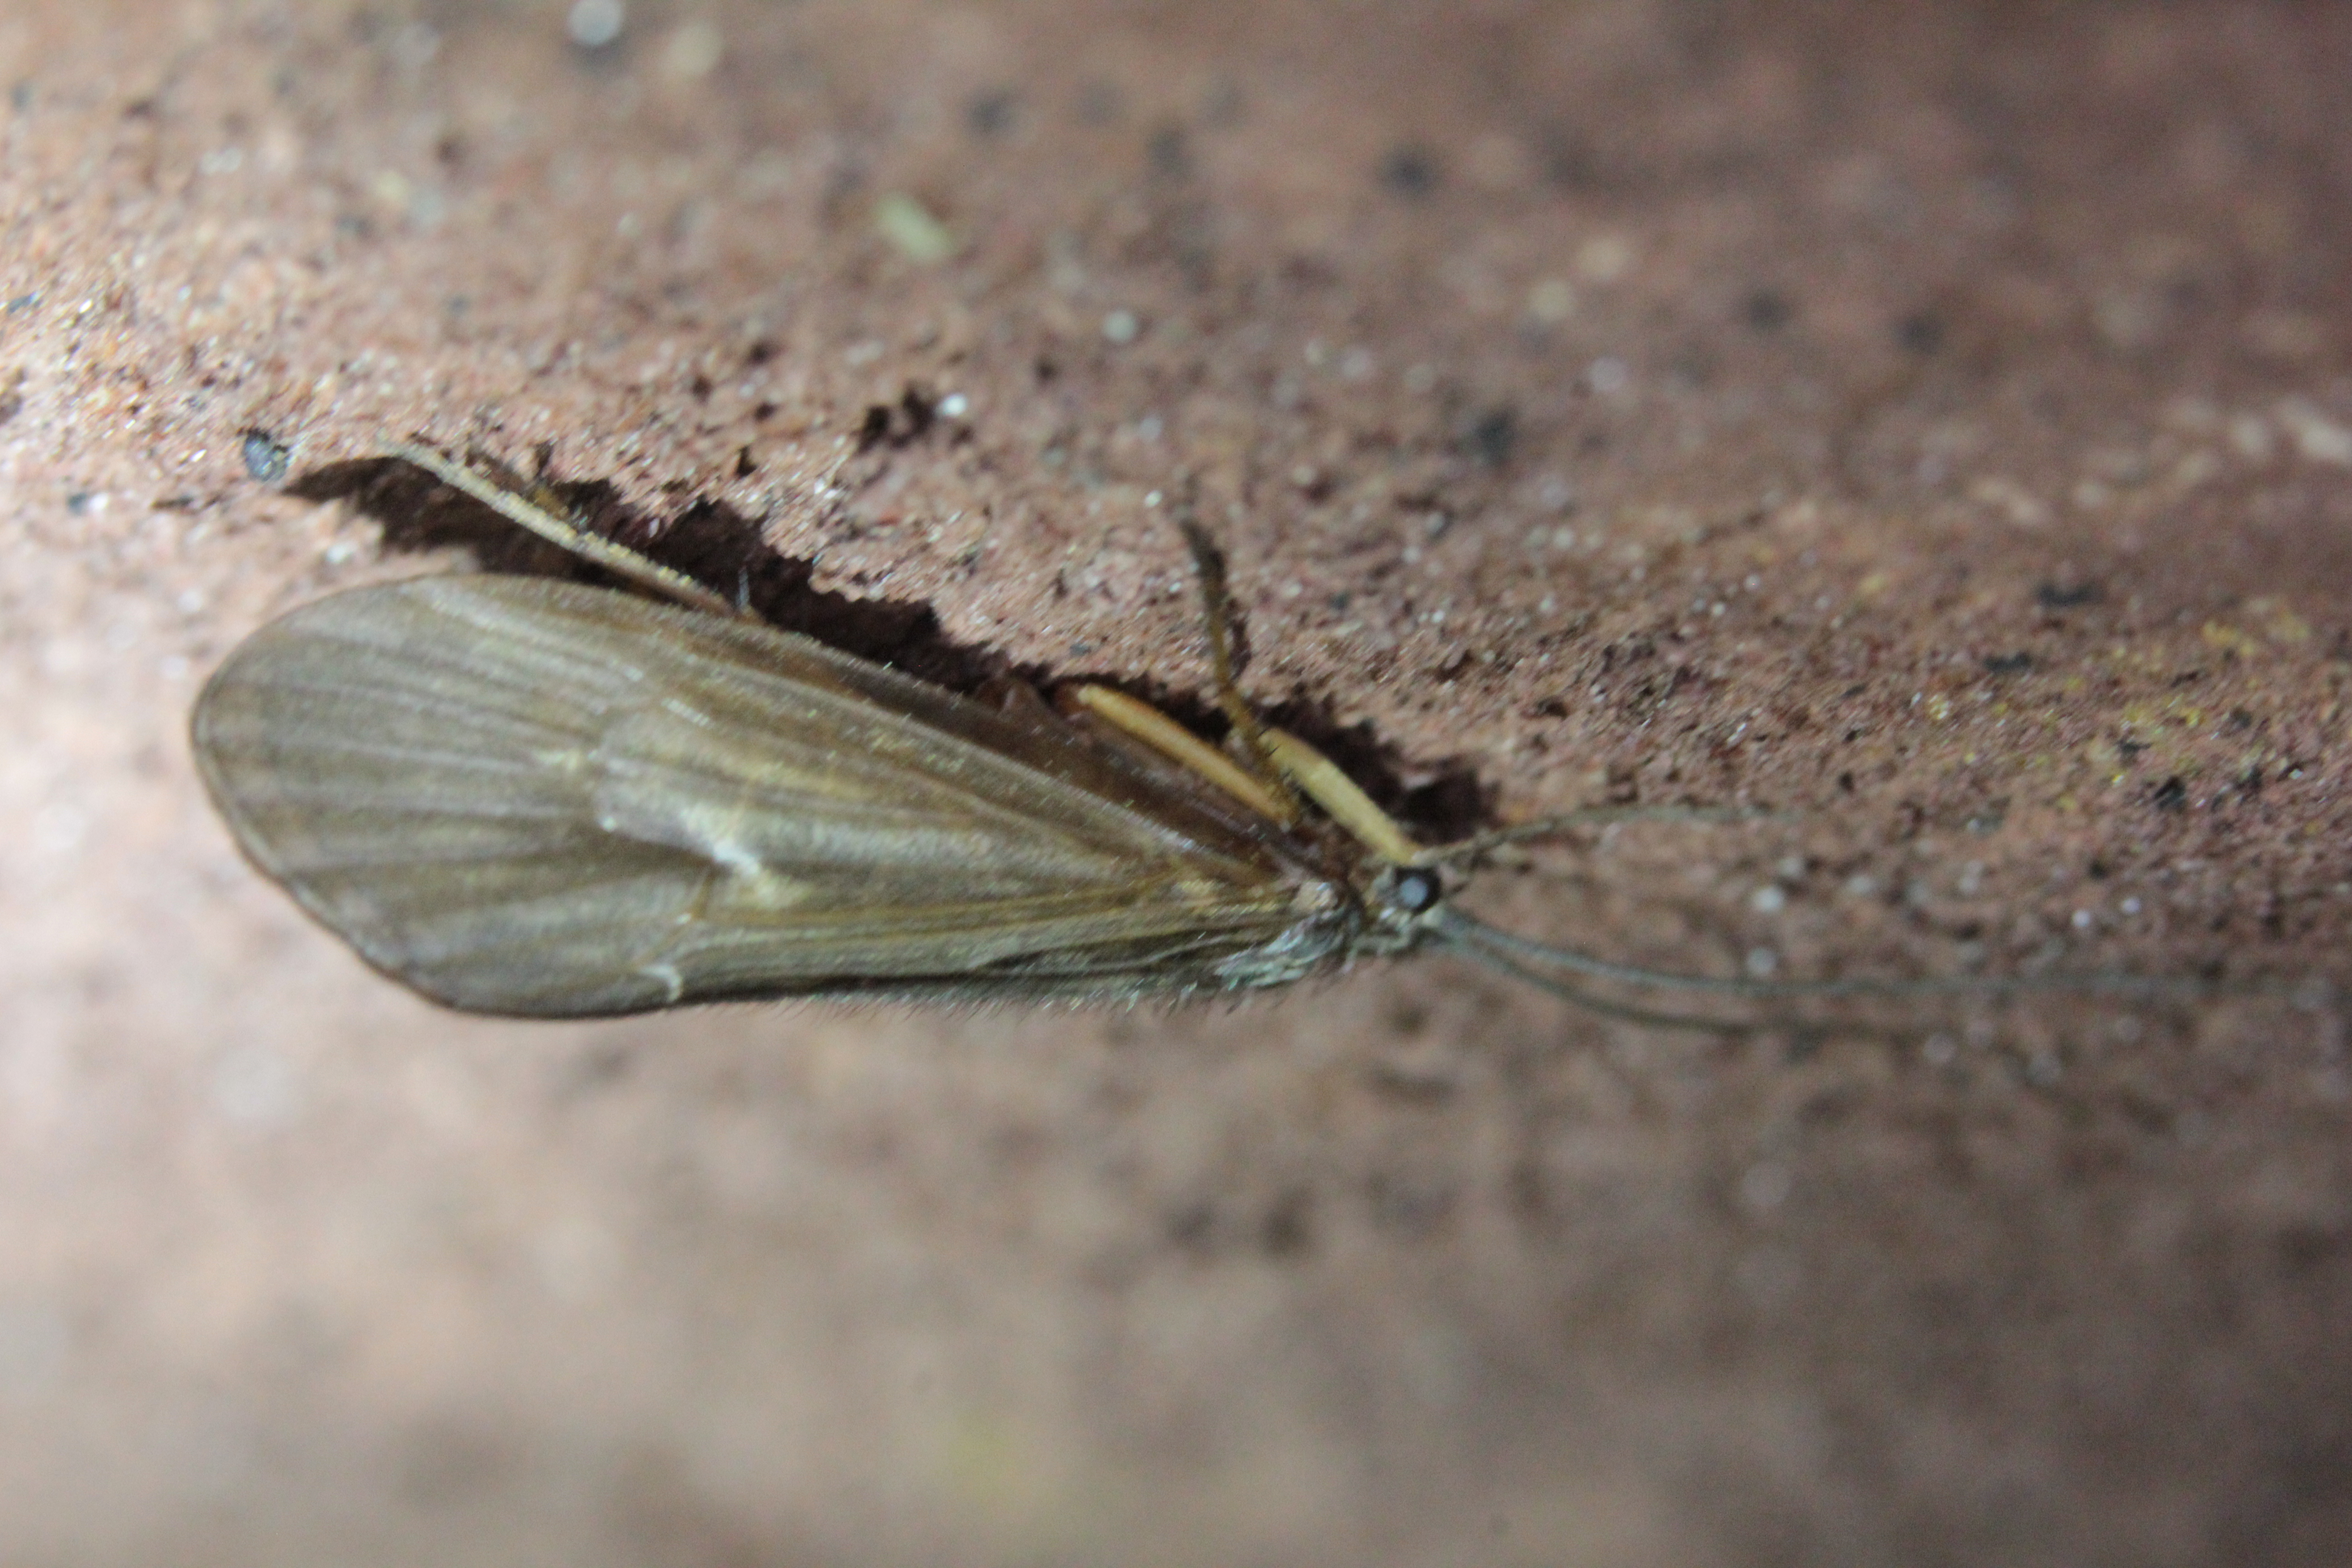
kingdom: Animalia
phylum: Arthropoda
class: Insecta
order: Trichoptera
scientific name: Trichoptera
